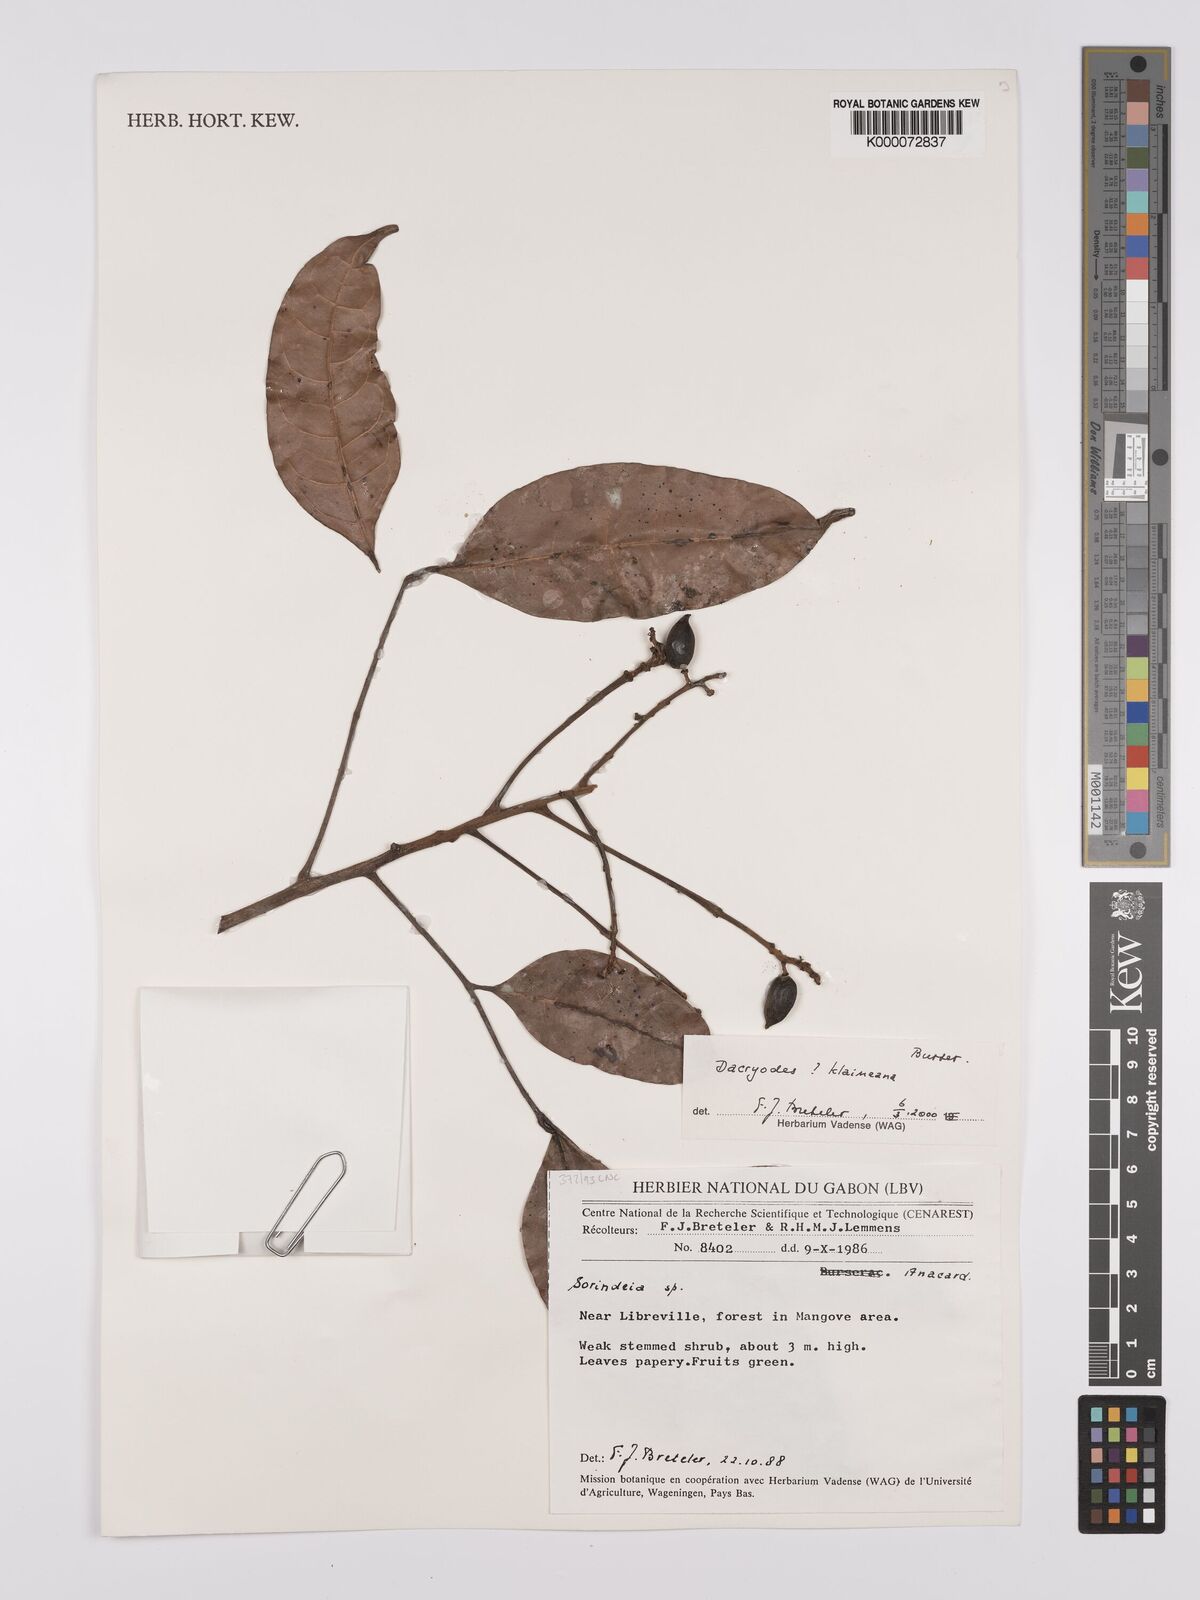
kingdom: Plantae
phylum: Tracheophyta
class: Magnoliopsida
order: Sapindales
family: Burseraceae
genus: Pachylobus
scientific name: Pachylobus klaineana
